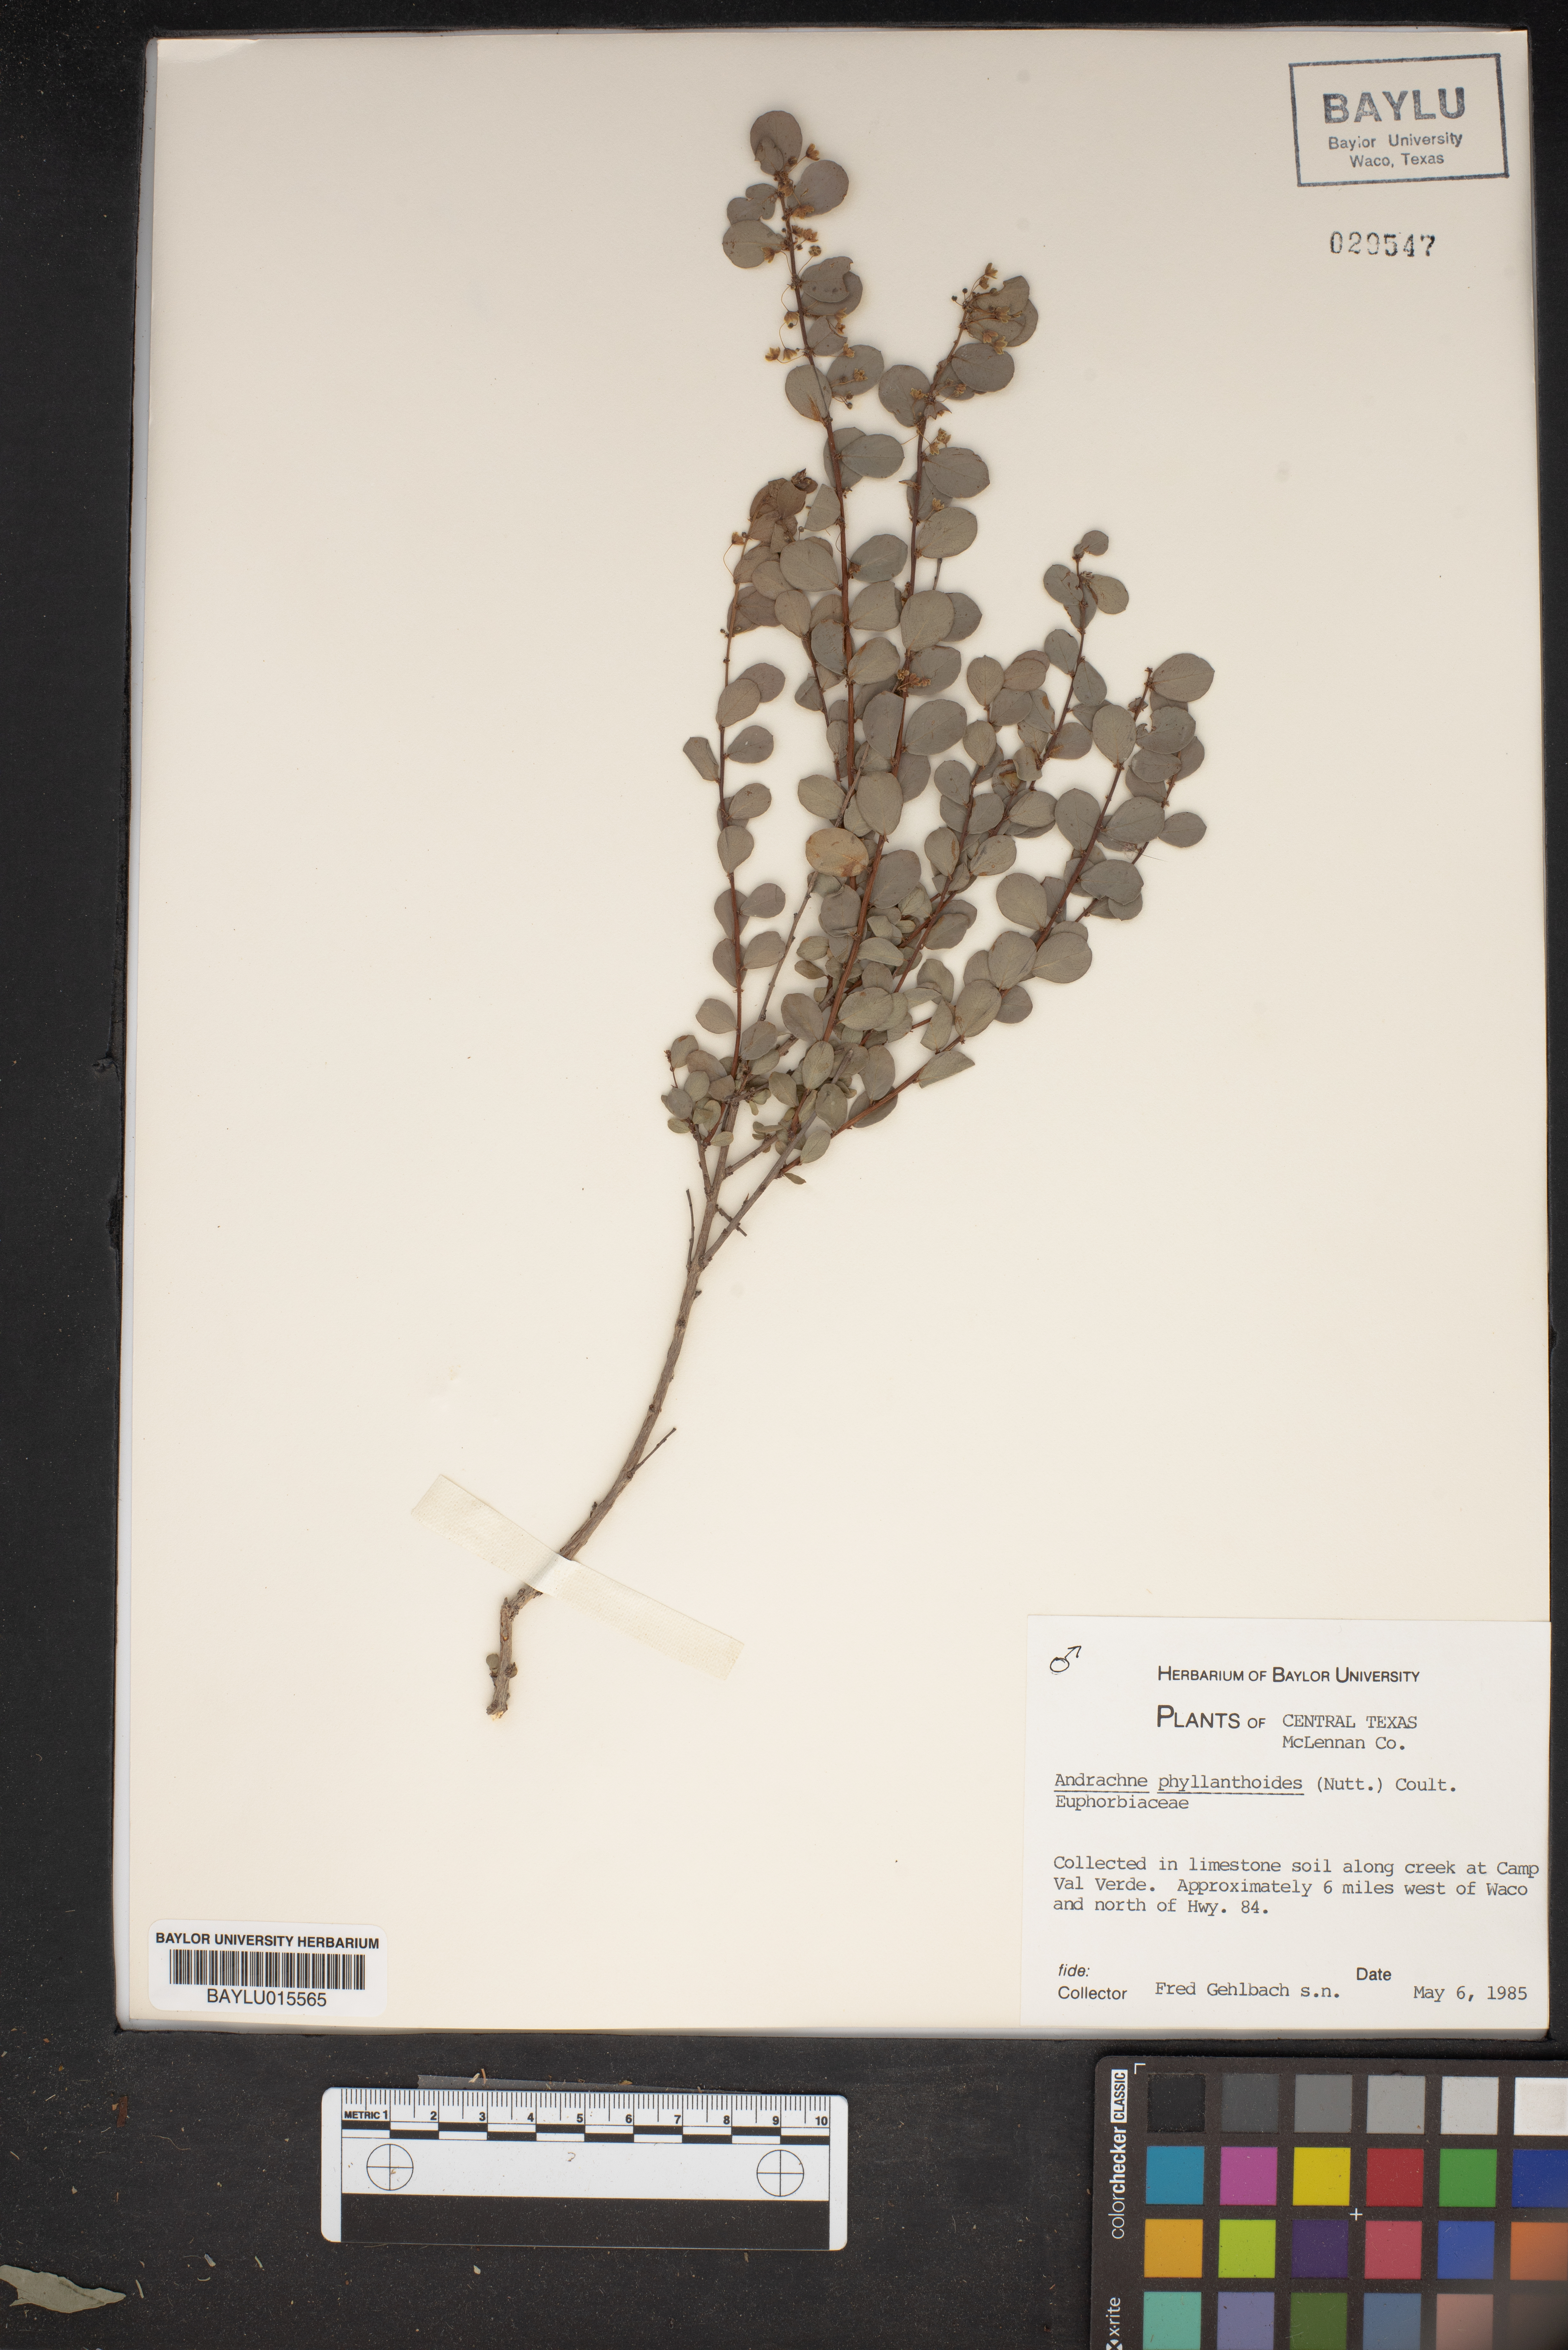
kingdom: Plantae
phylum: Tracheophyta
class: Magnoliopsida
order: Malpighiales
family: Phyllanthaceae
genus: Phyllanthopsis
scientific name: Phyllanthopsis phyllanthoides
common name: Missouri maidenbush
